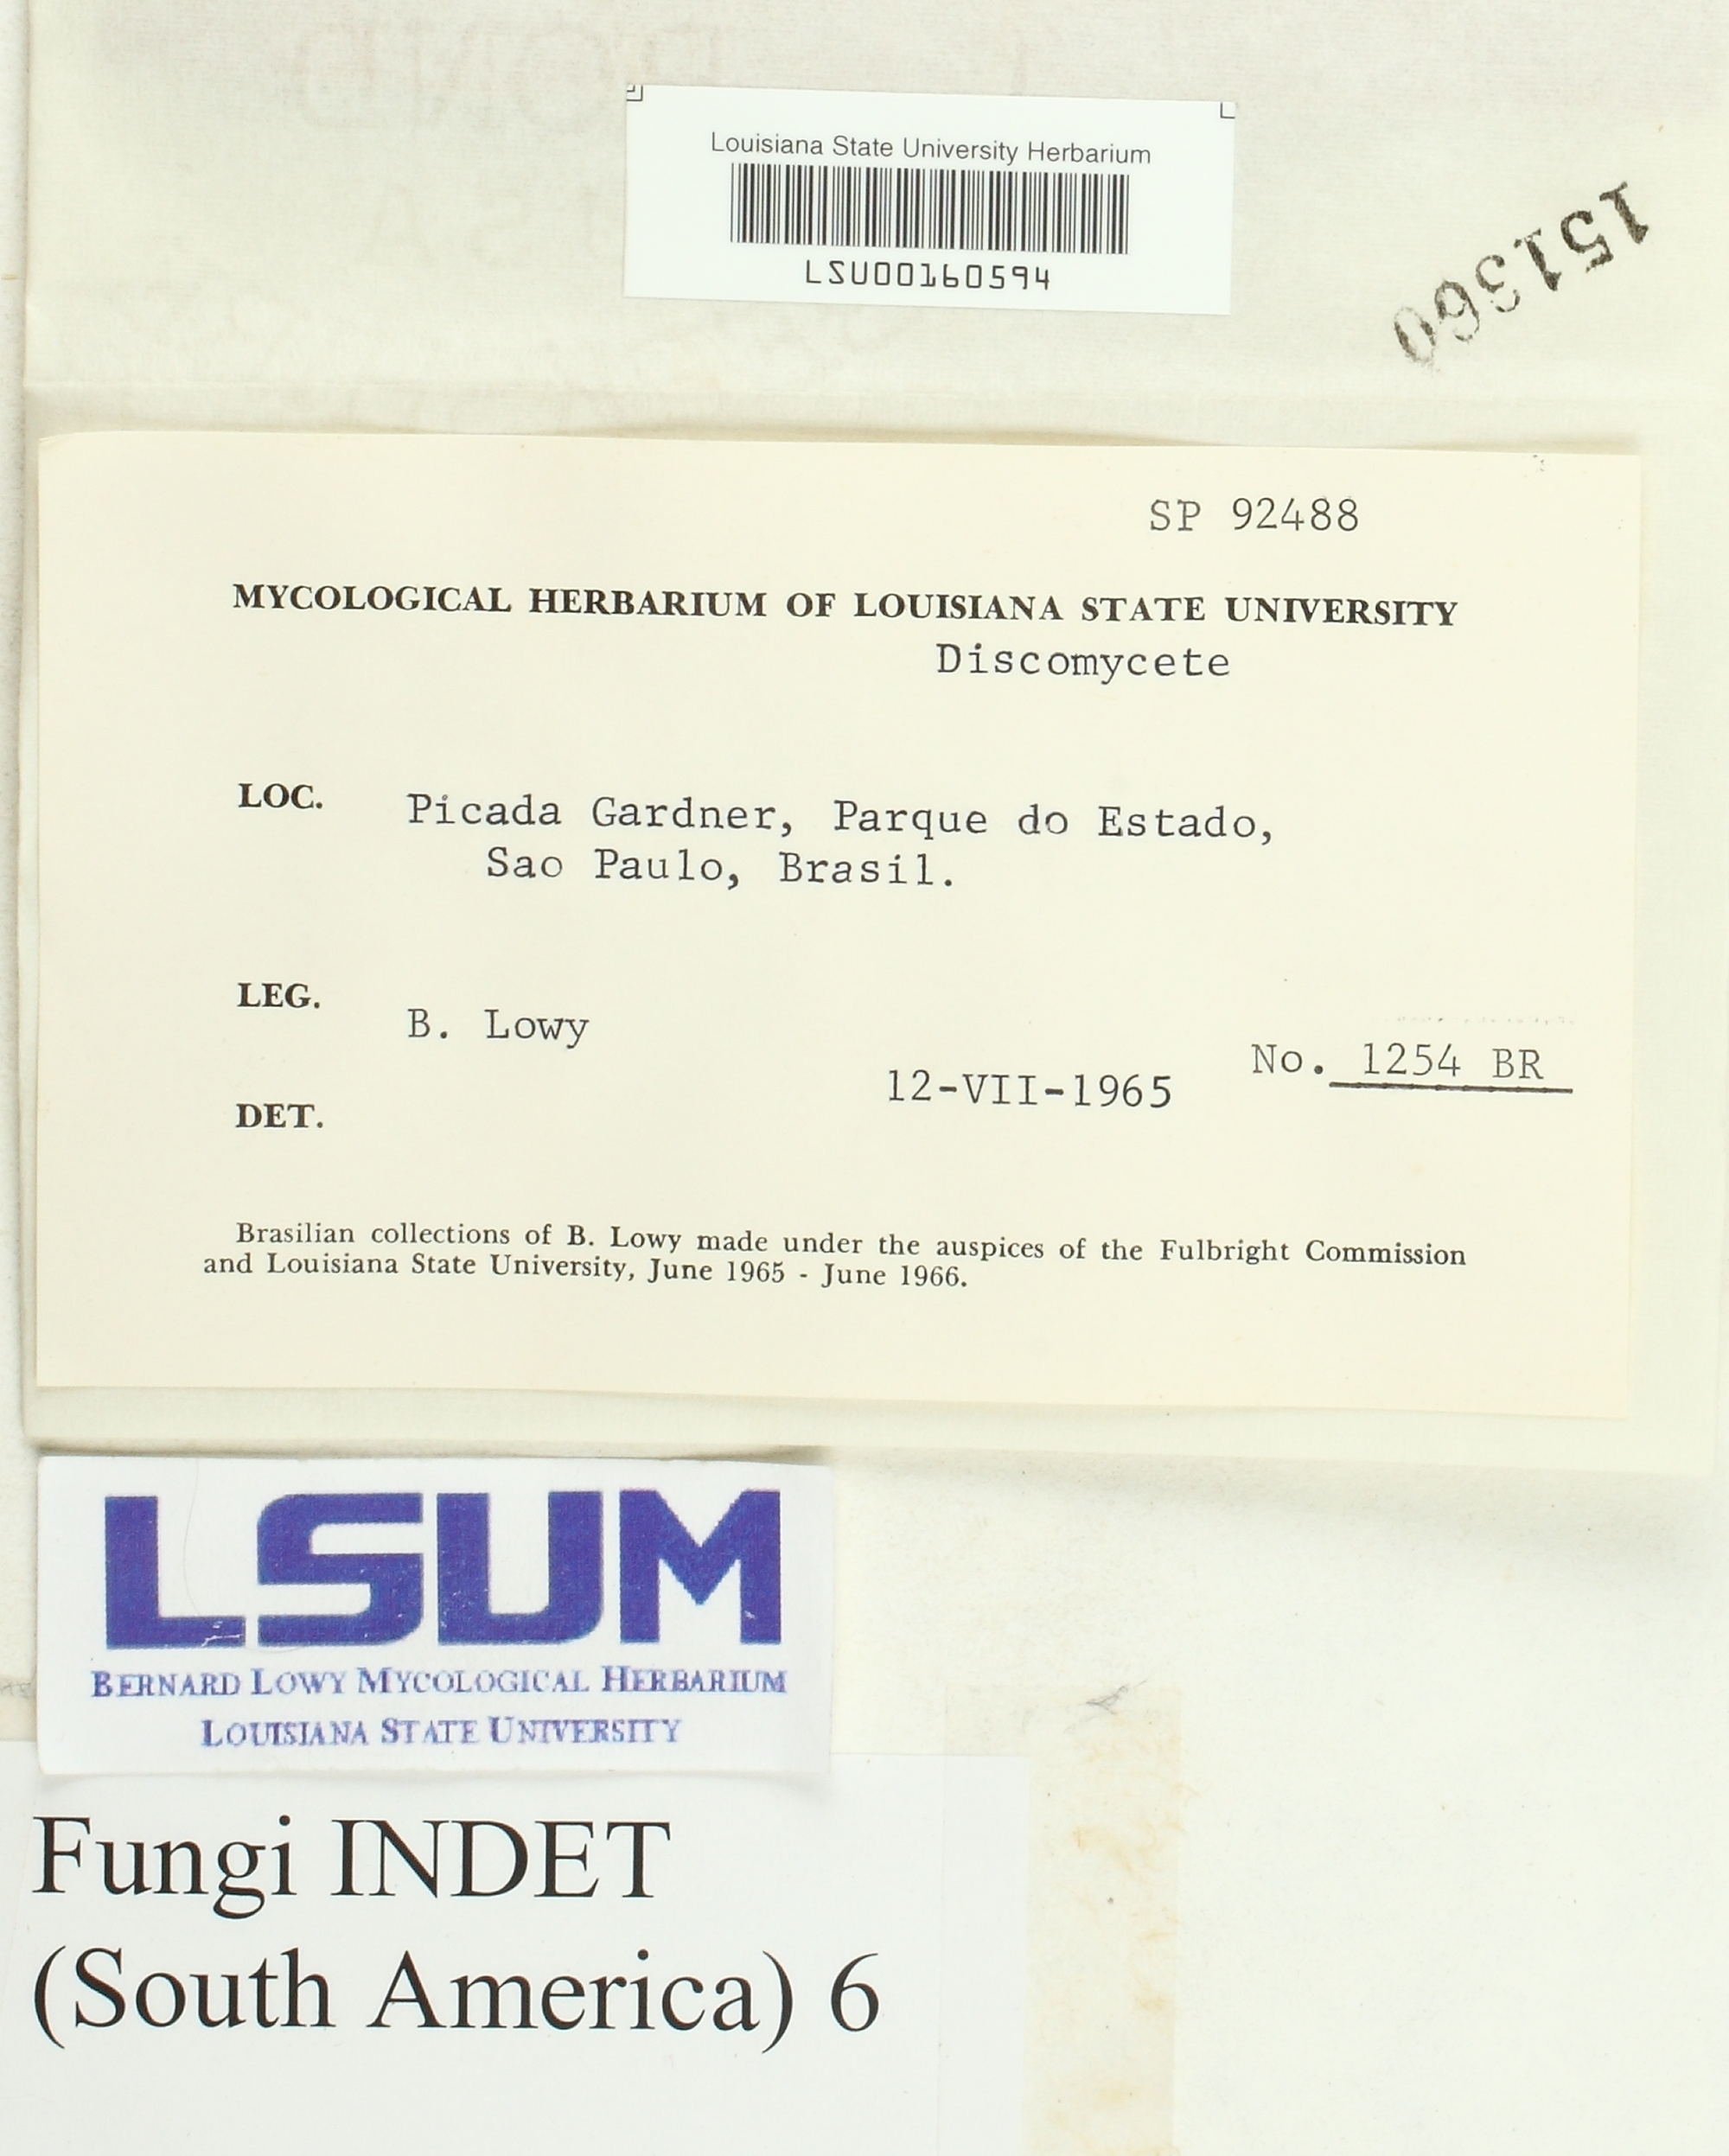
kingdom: Fungi
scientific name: Fungi
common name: Fungi
